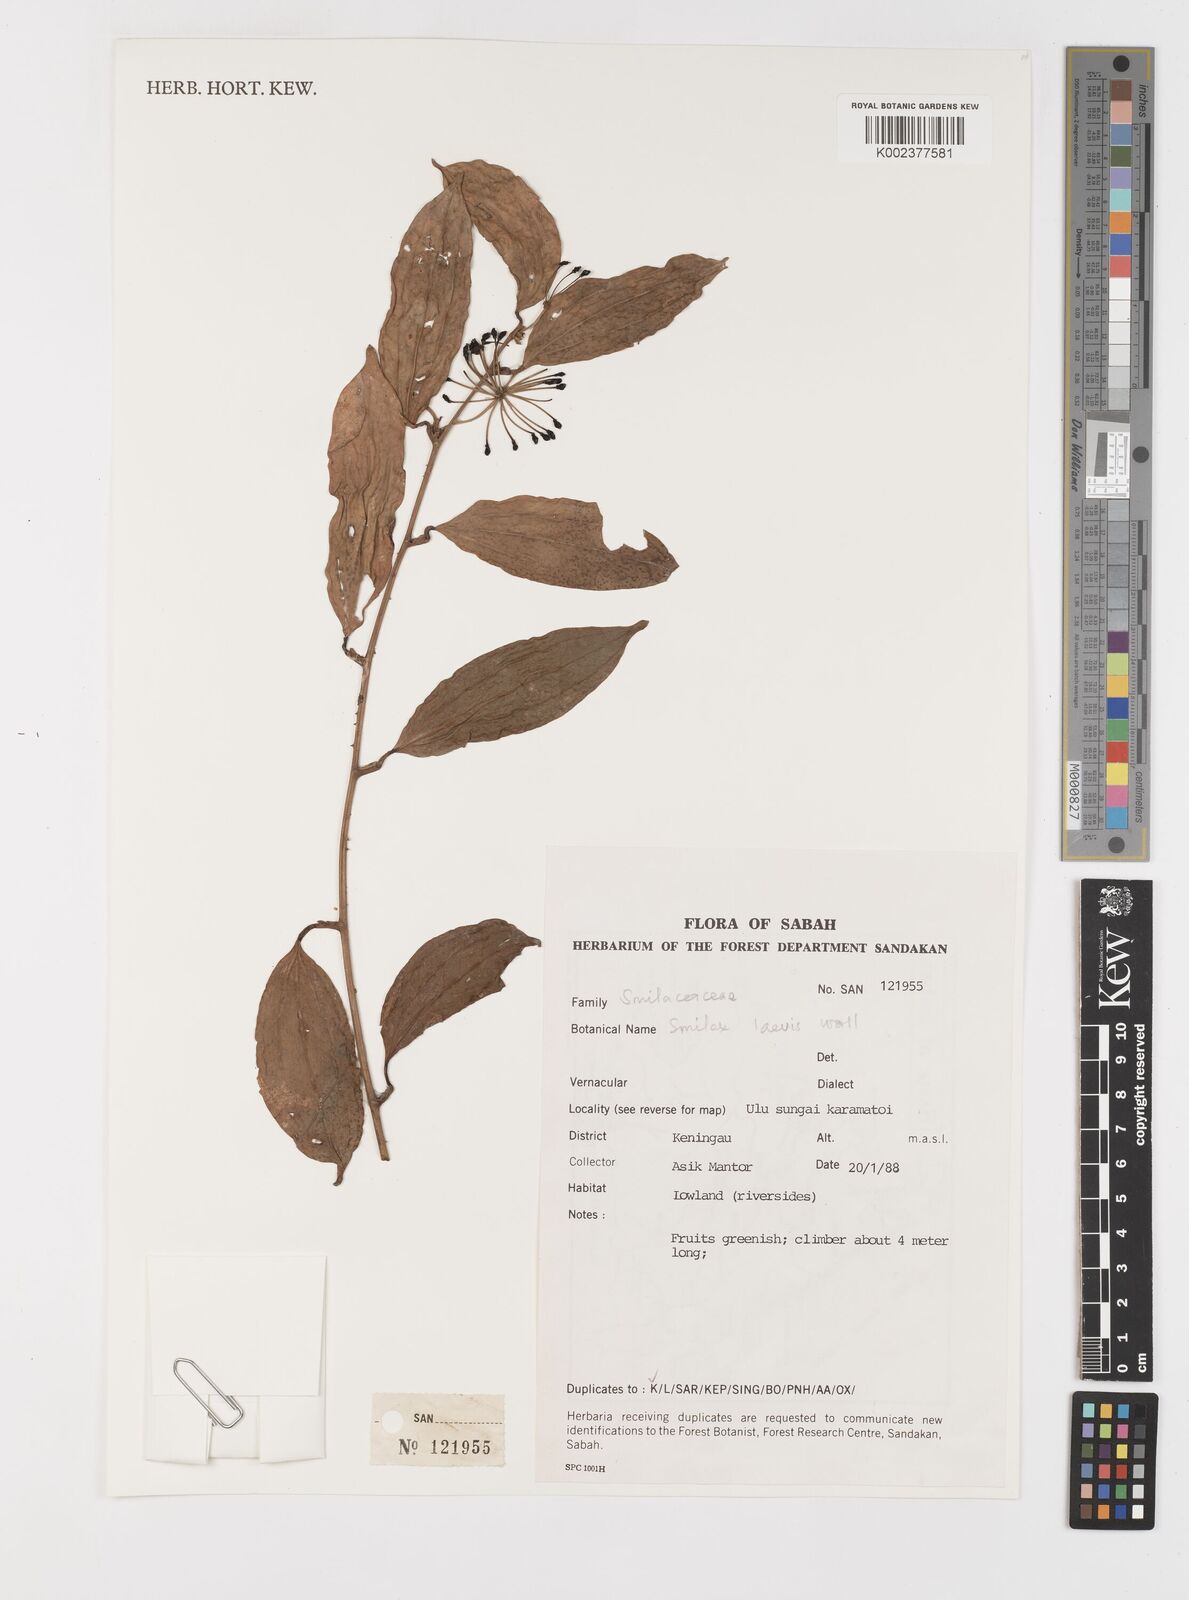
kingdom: Plantae
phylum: Tracheophyta
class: Liliopsida
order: Liliales
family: Smilacaceae
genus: Smilax
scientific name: Smilax laevis
